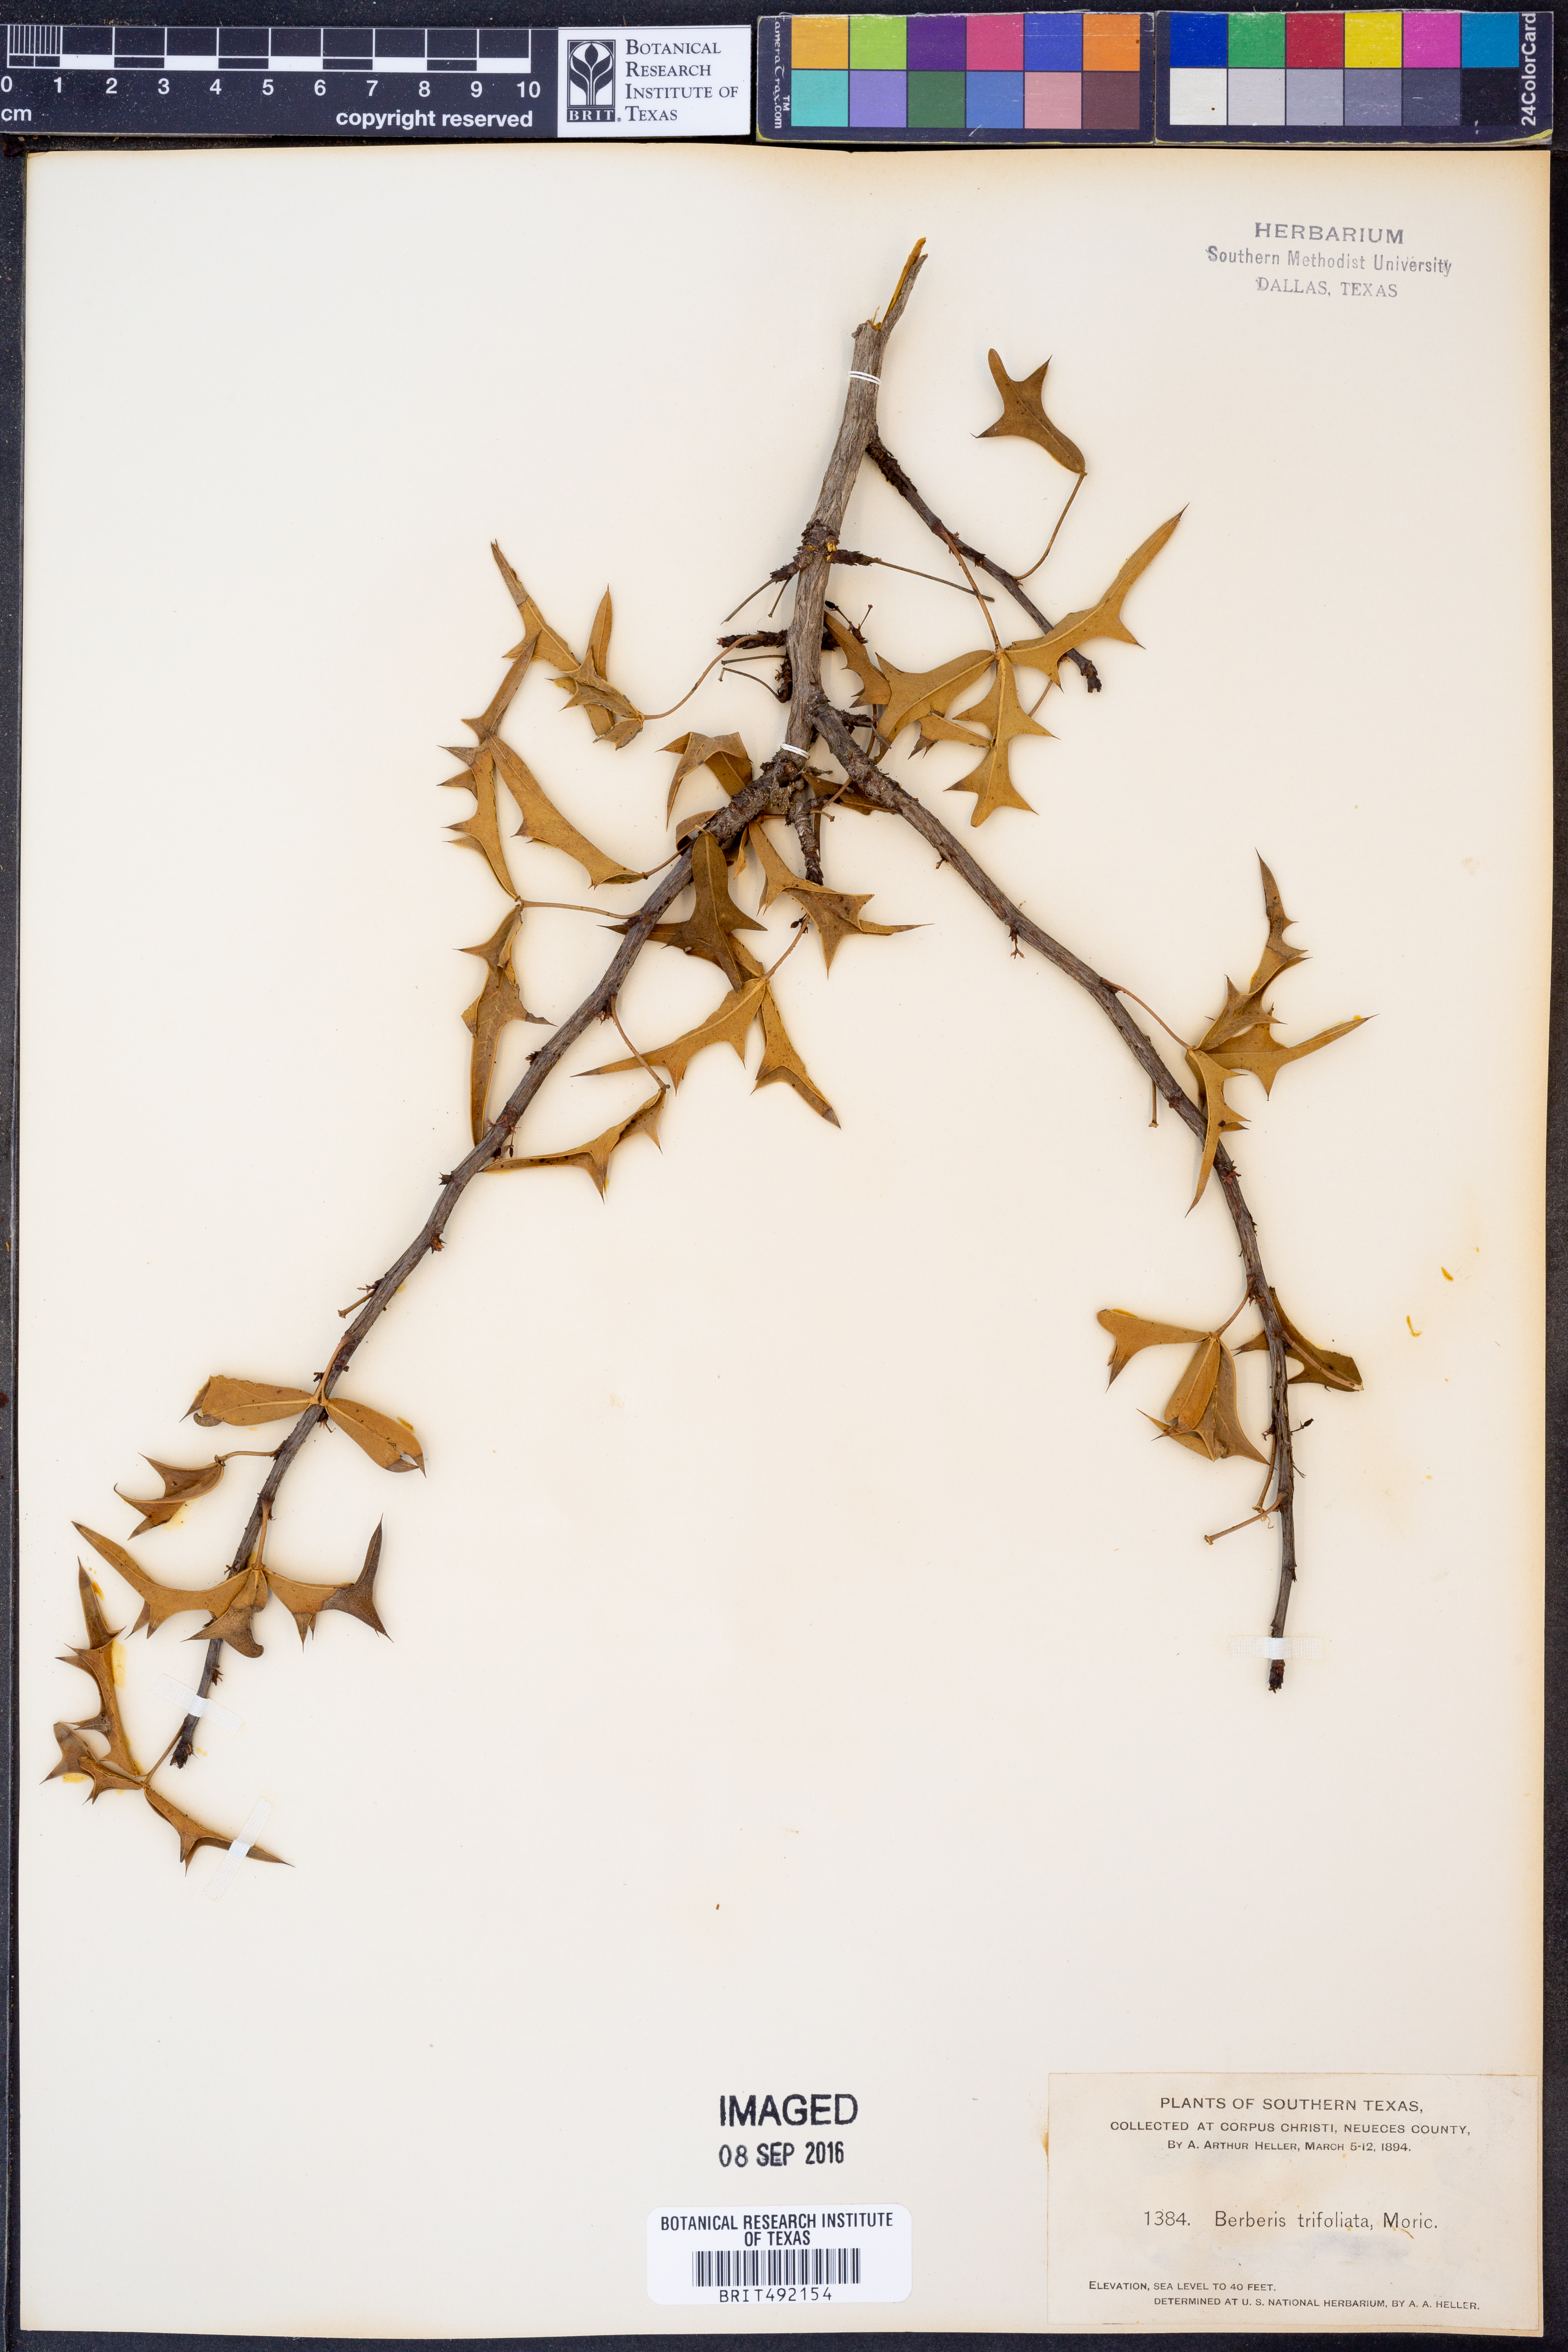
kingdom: Plantae
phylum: Tracheophyta
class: Magnoliopsida
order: Ranunculales
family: Berberidaceae
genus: Alloberberis
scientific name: Alloberberis fremontii
